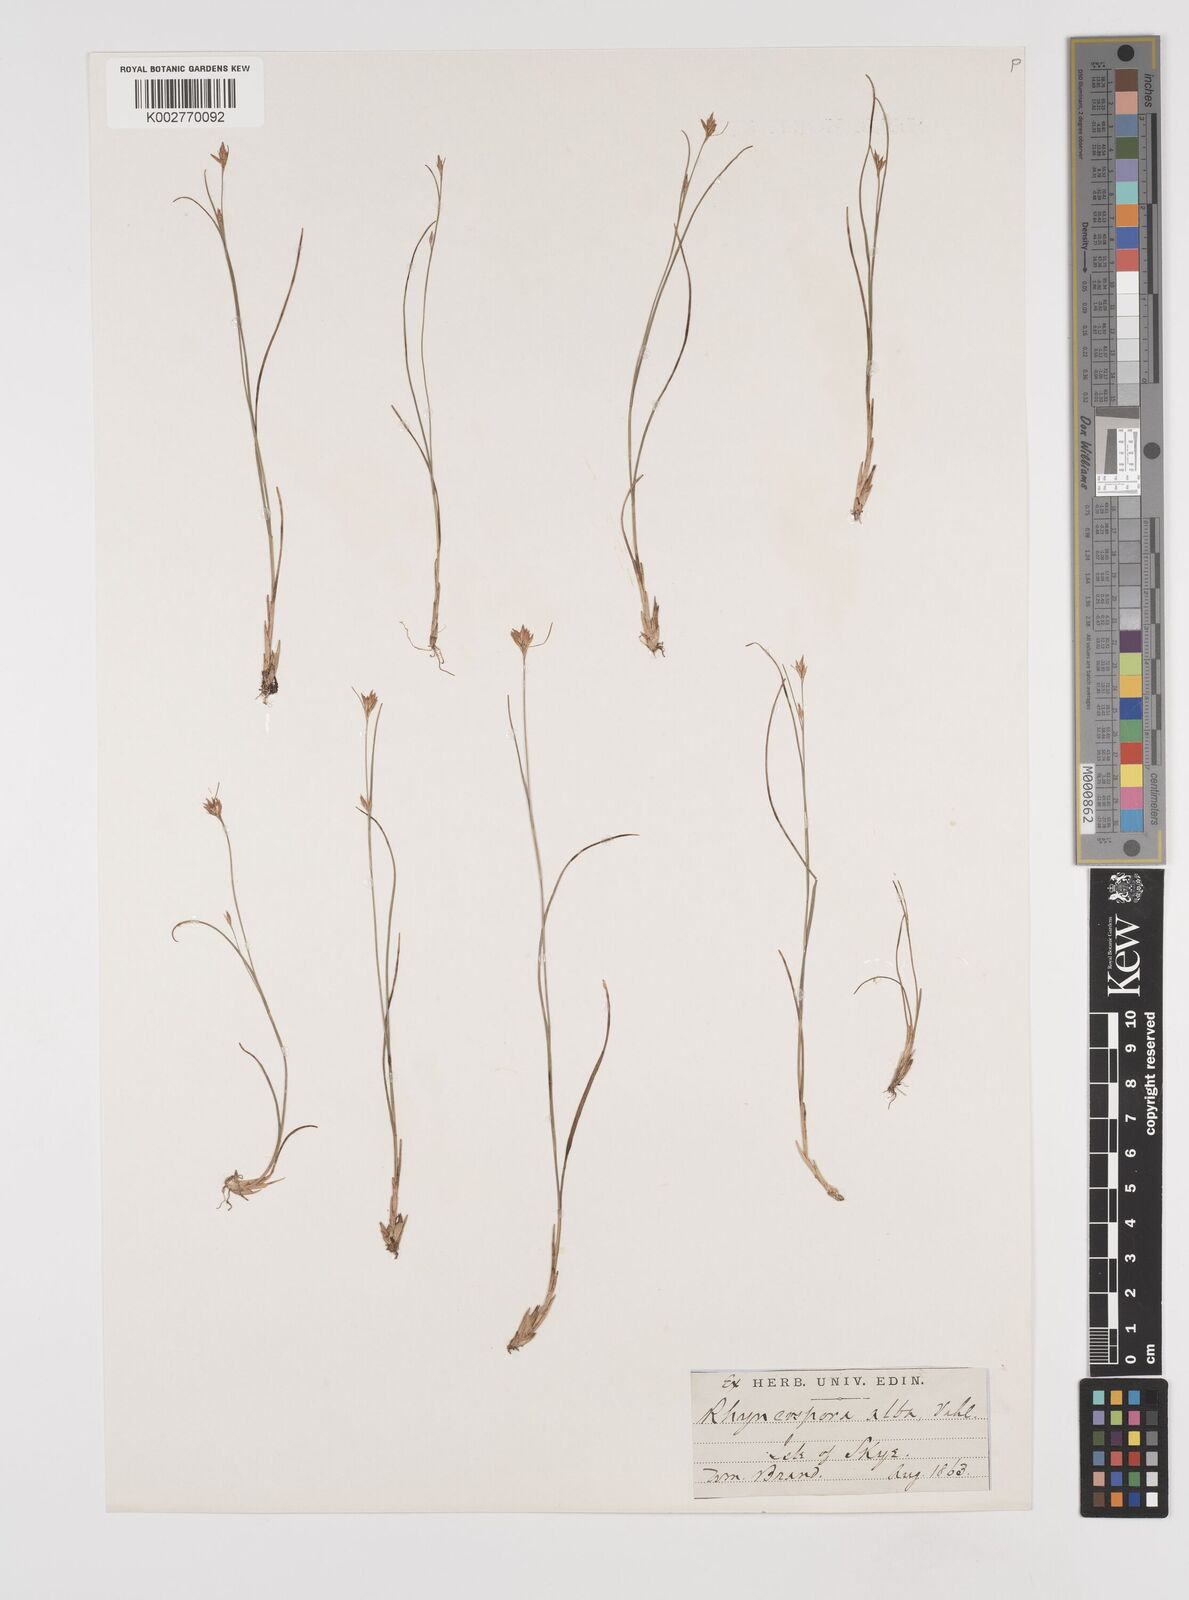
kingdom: Plantae
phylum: Tracheophyta
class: Liliopsida
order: Poales
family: Cyperaceae
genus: Rhynchospora
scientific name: Rhynchospora alba
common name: White beak-sedge
